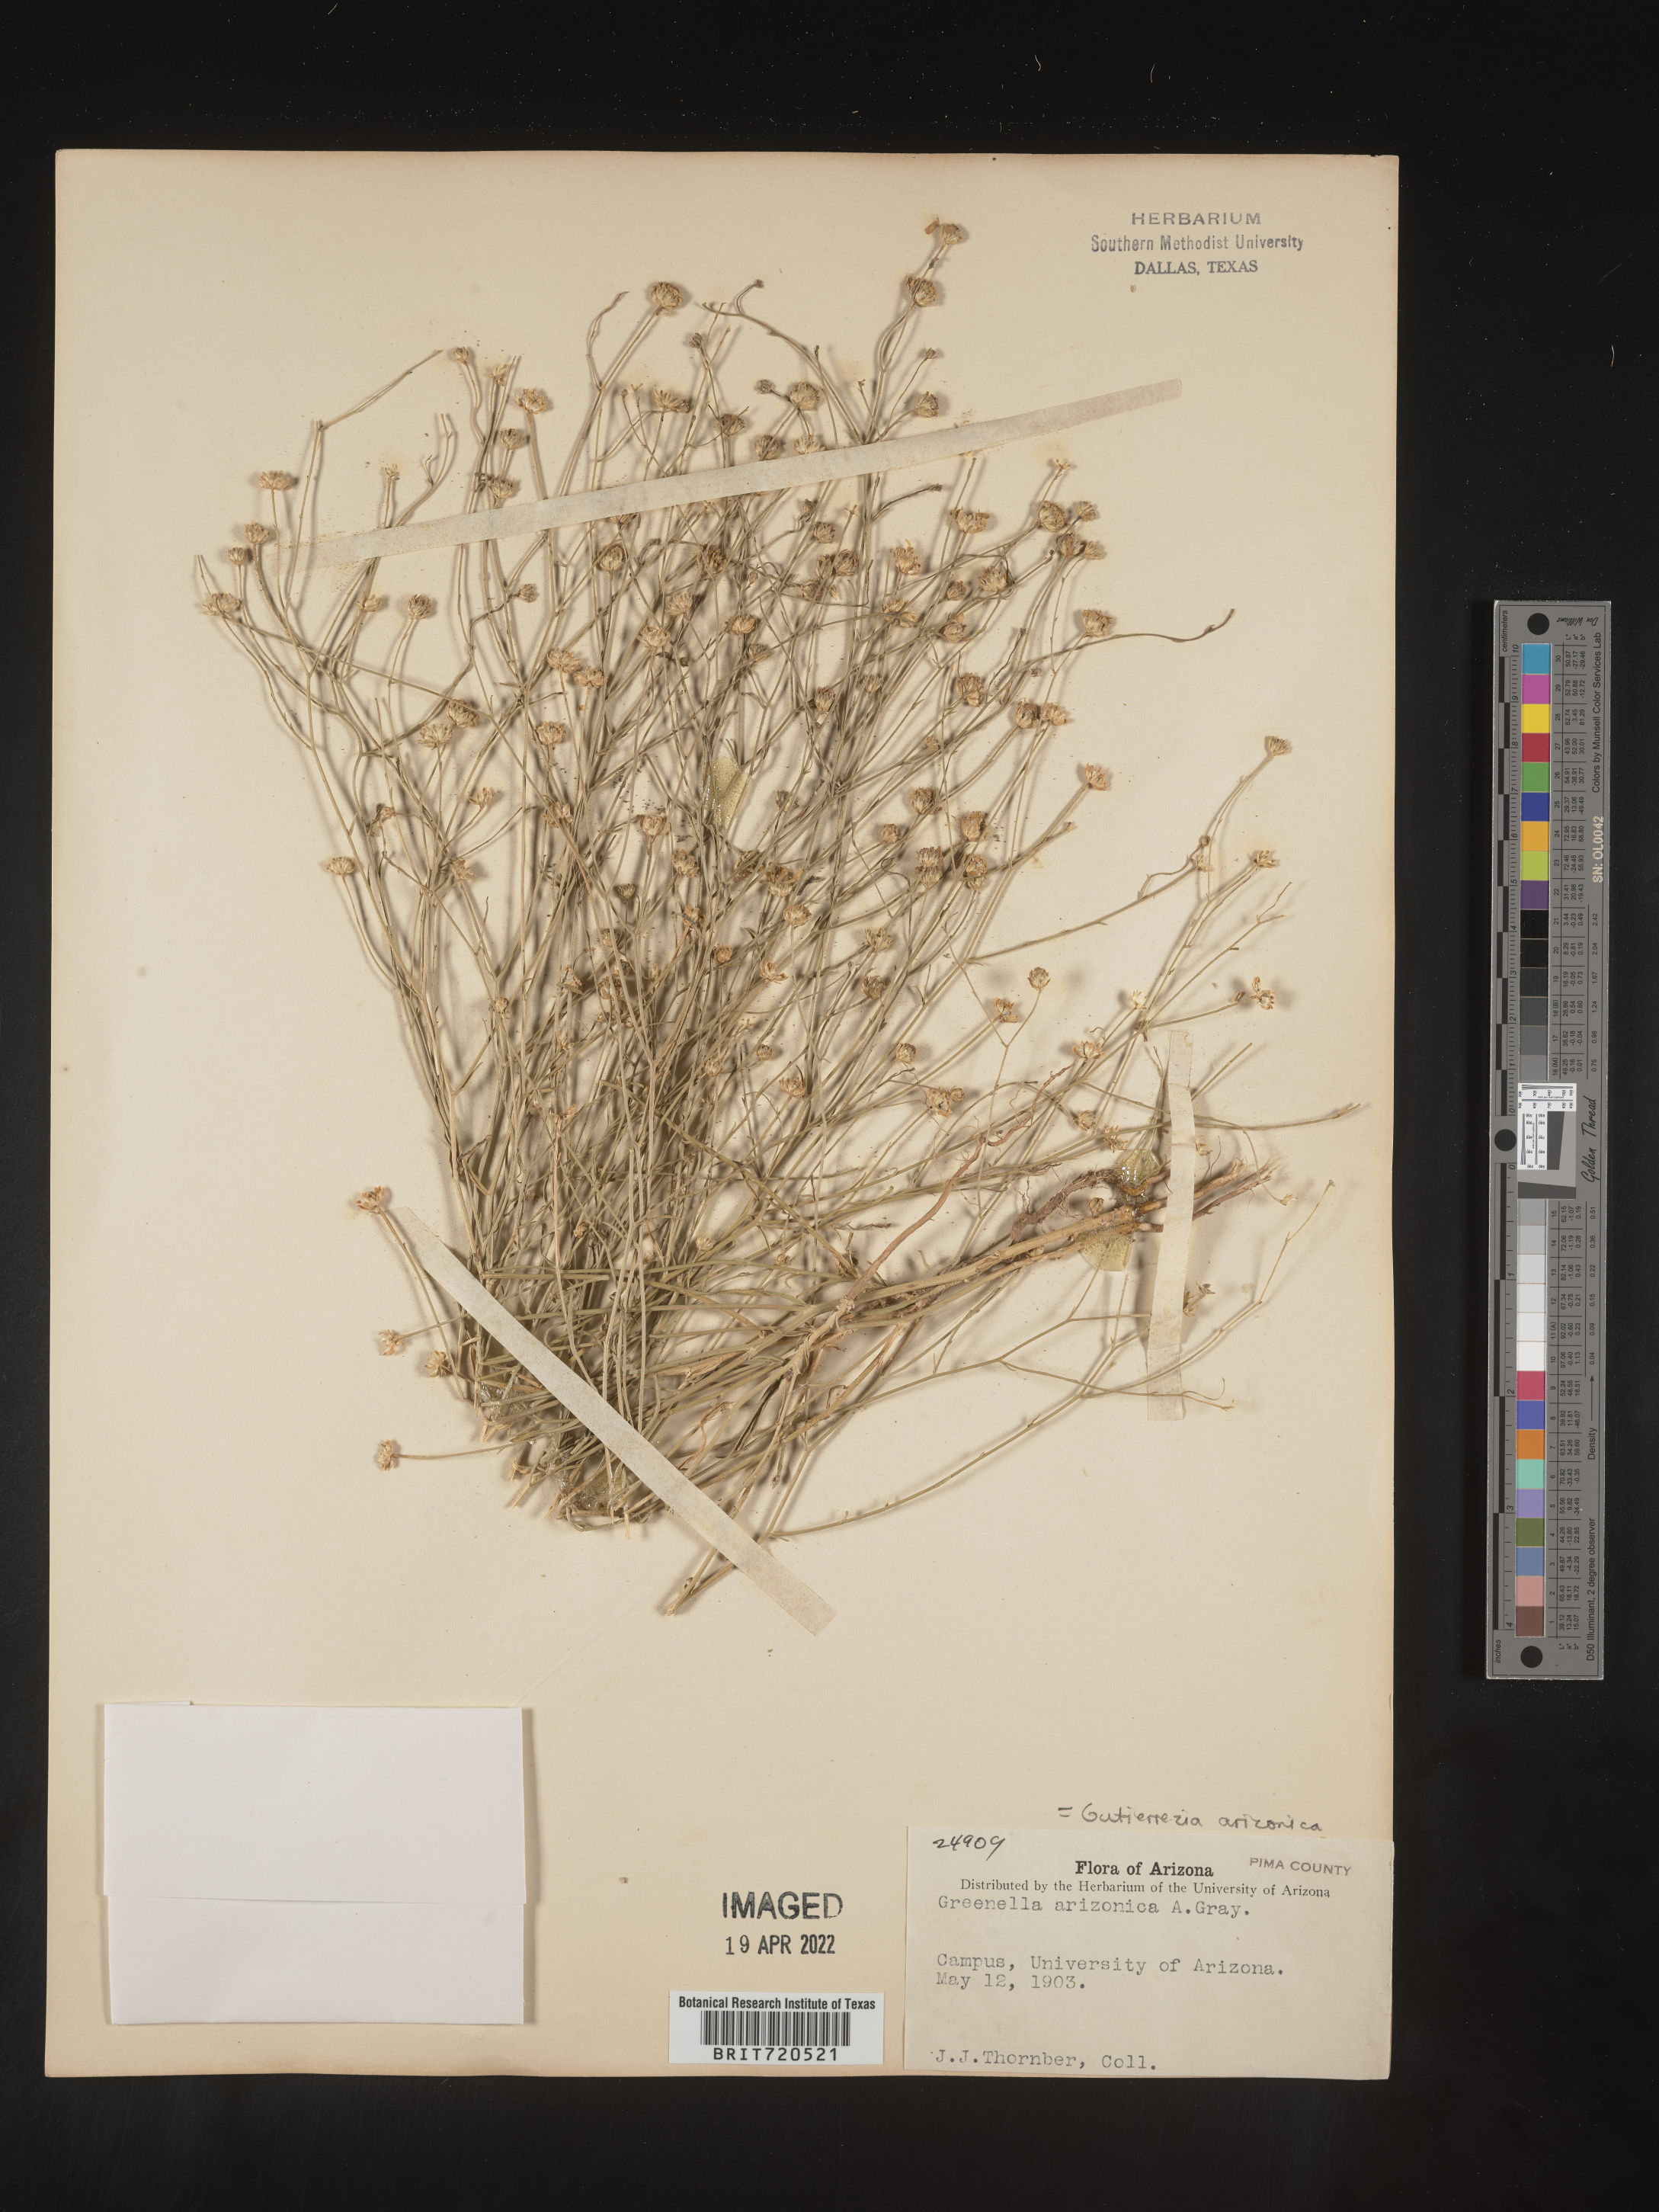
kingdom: Plantae
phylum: Tracheophyta
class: Magnoliopsida
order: Asterales
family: Asteraceae
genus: Gutierrezia
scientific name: Gutierrezia arizonica
